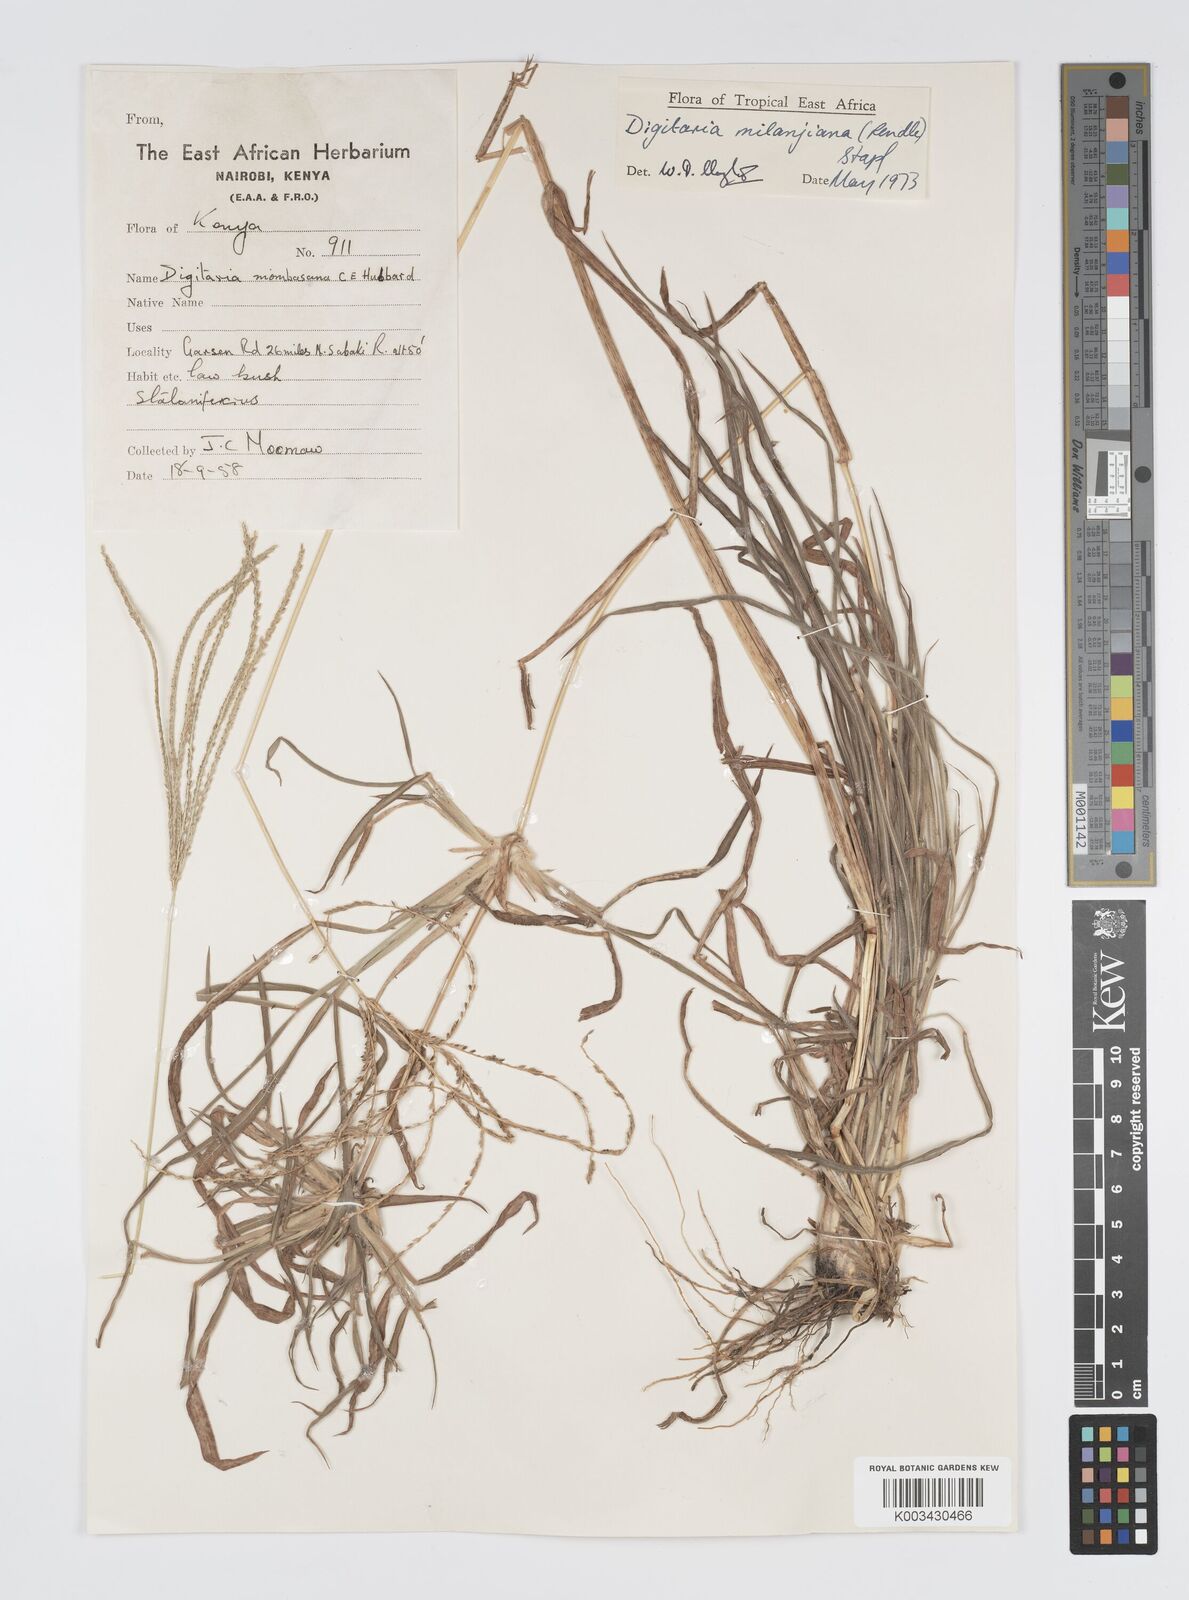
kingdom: Plantae
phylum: Tracheophyta
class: Liliopsida
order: Poales
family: Poaceae
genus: Digitaria
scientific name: Digitaria milanjiana
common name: Madagascar crabgrass
